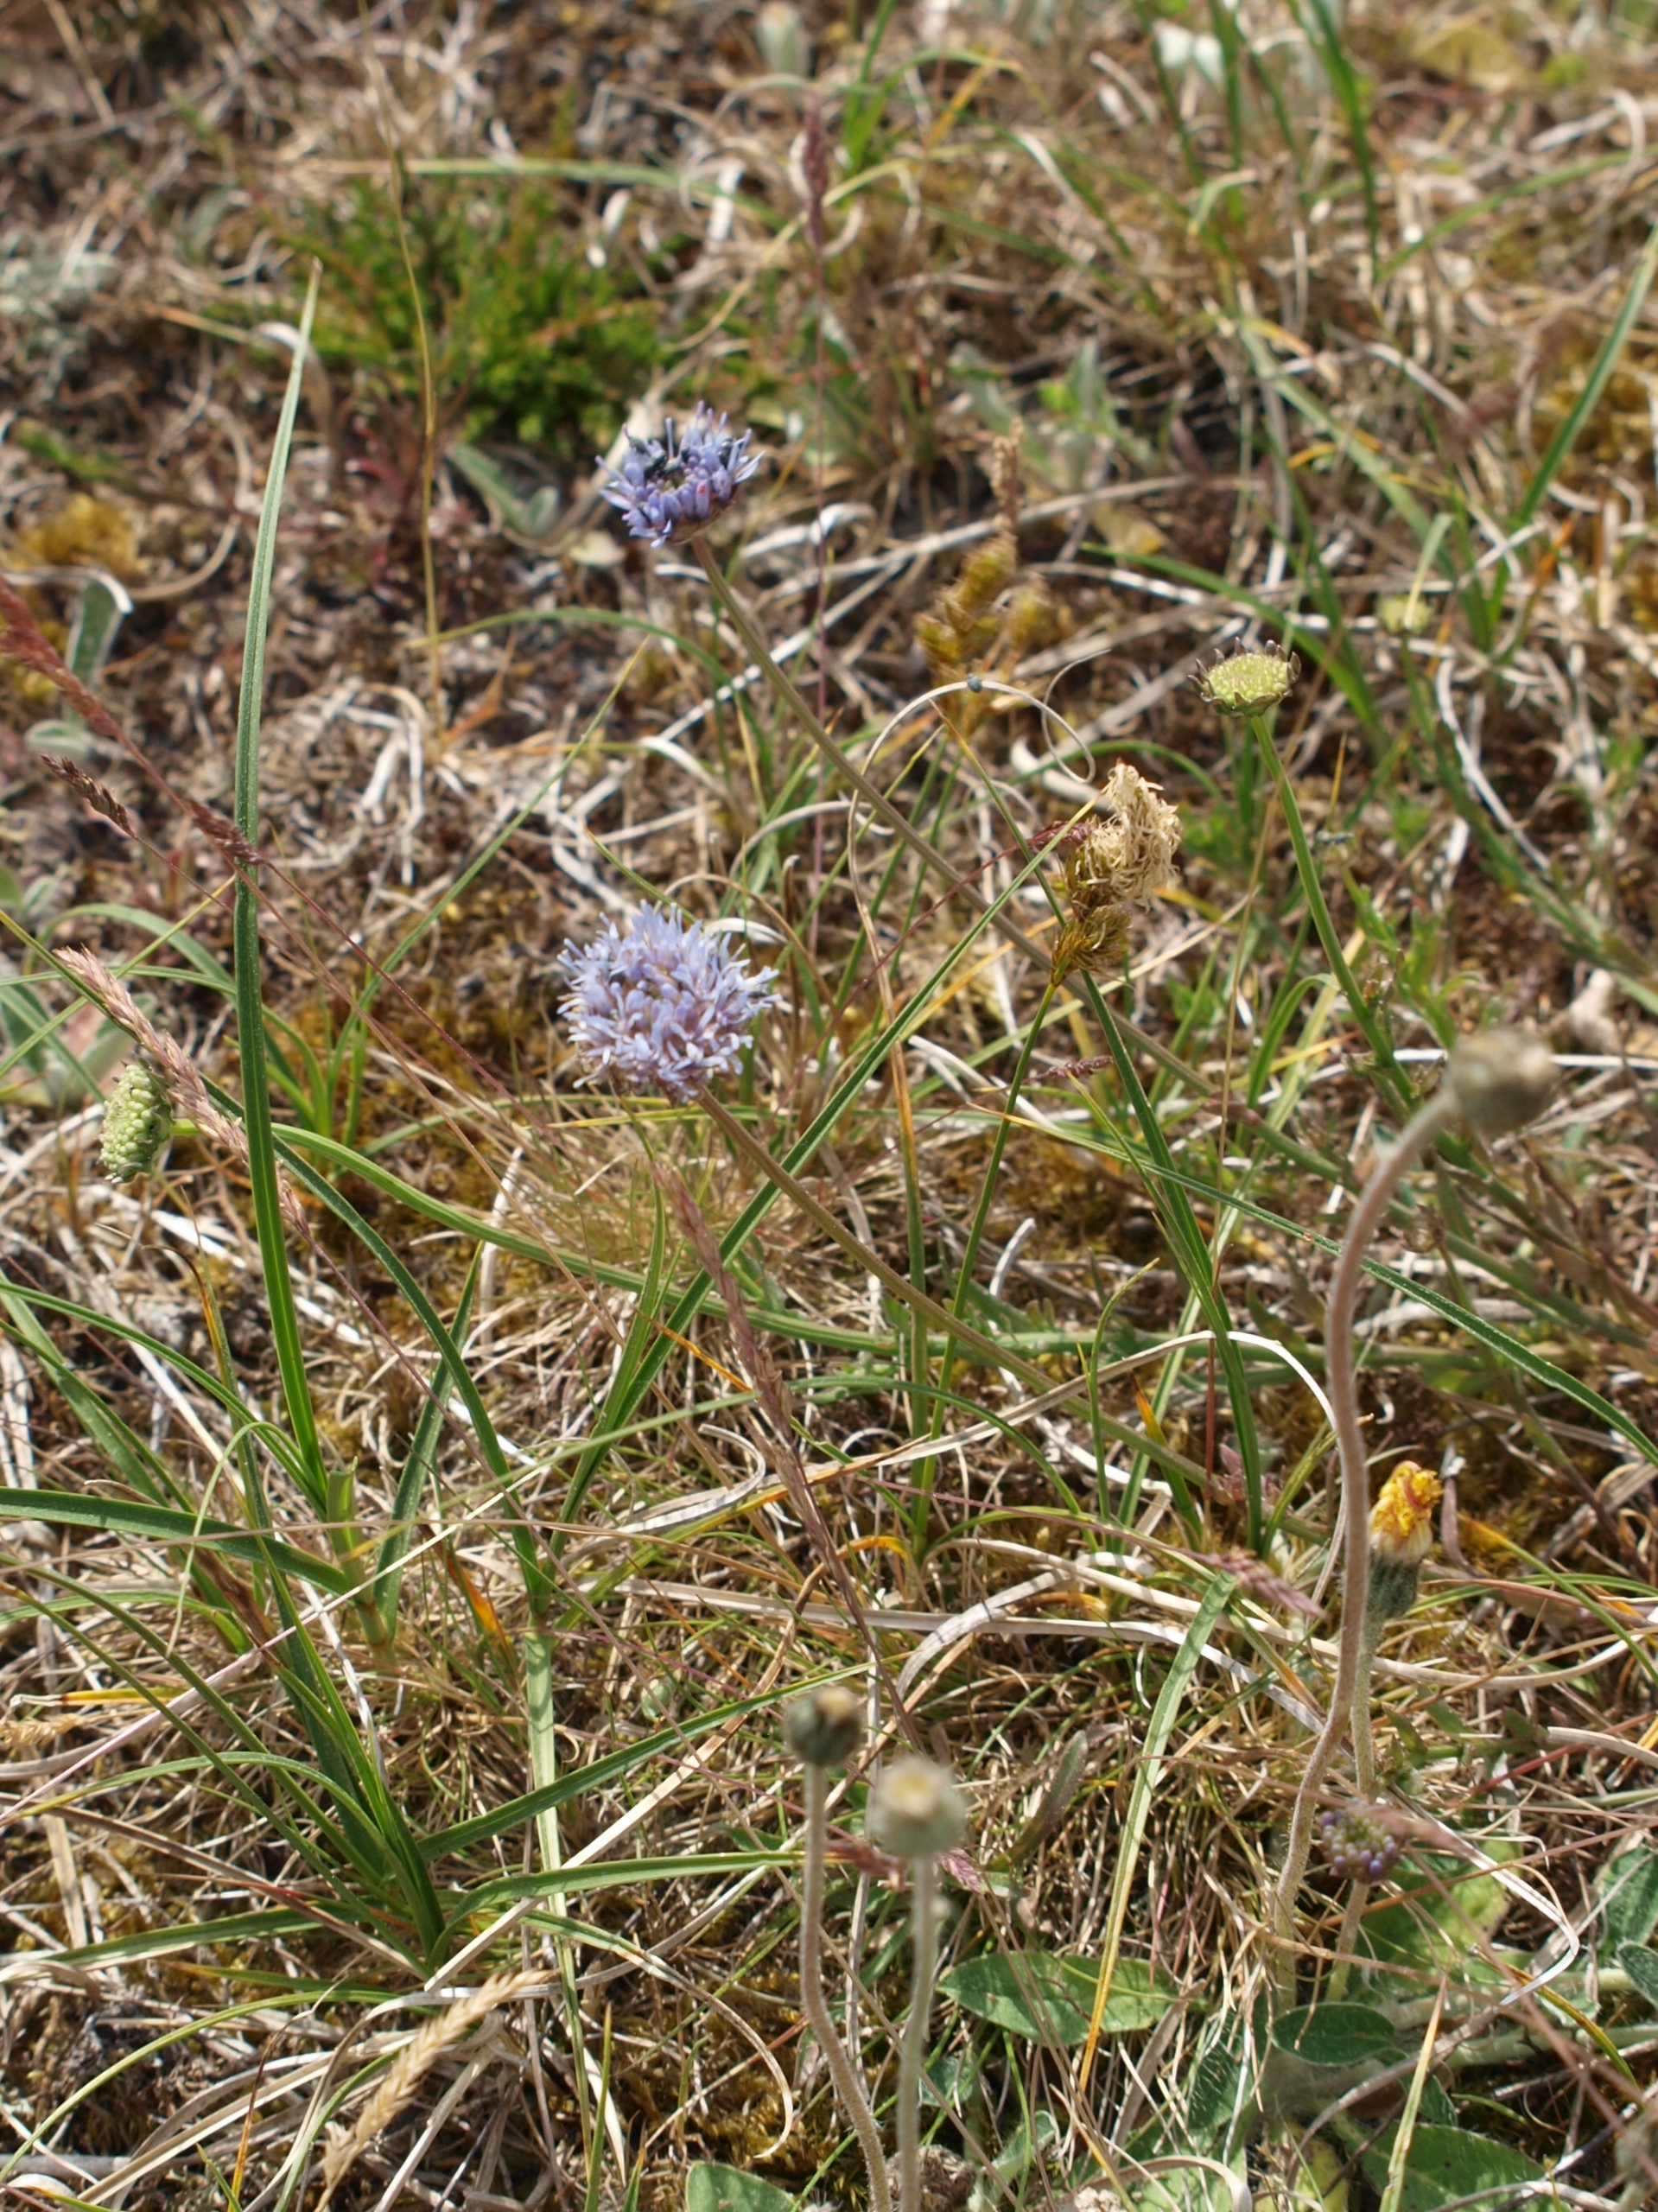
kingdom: Plantae
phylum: Tracheophyta
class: Magnoliopsida
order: Asterales
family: Campanulaceae
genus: Jasione
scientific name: Jasione montana
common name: Blåmunke
